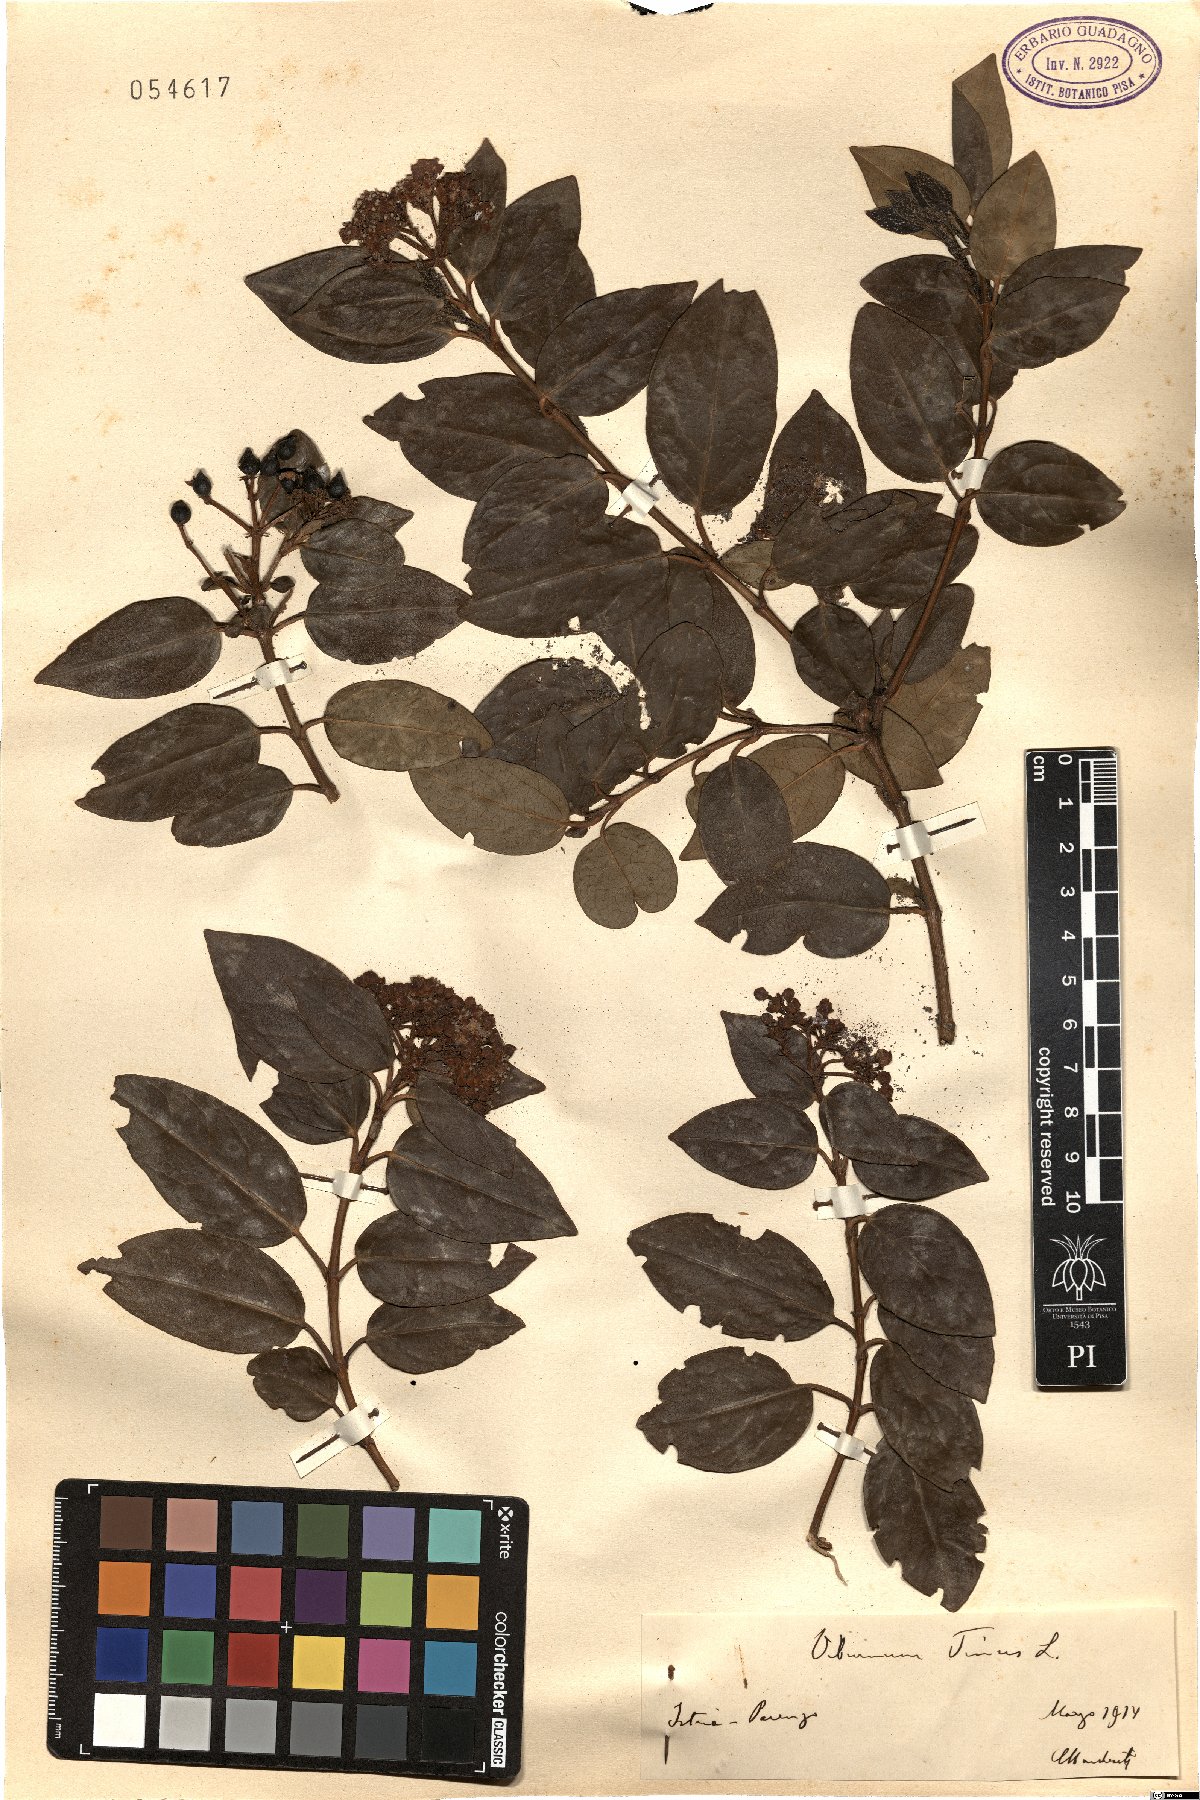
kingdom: Plantae
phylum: Tracheophyta
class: Magnoliopsida
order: Dipsacales
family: Viburnaceae
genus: Viburnum
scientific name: Viburnum tinus
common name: Laurustinus
